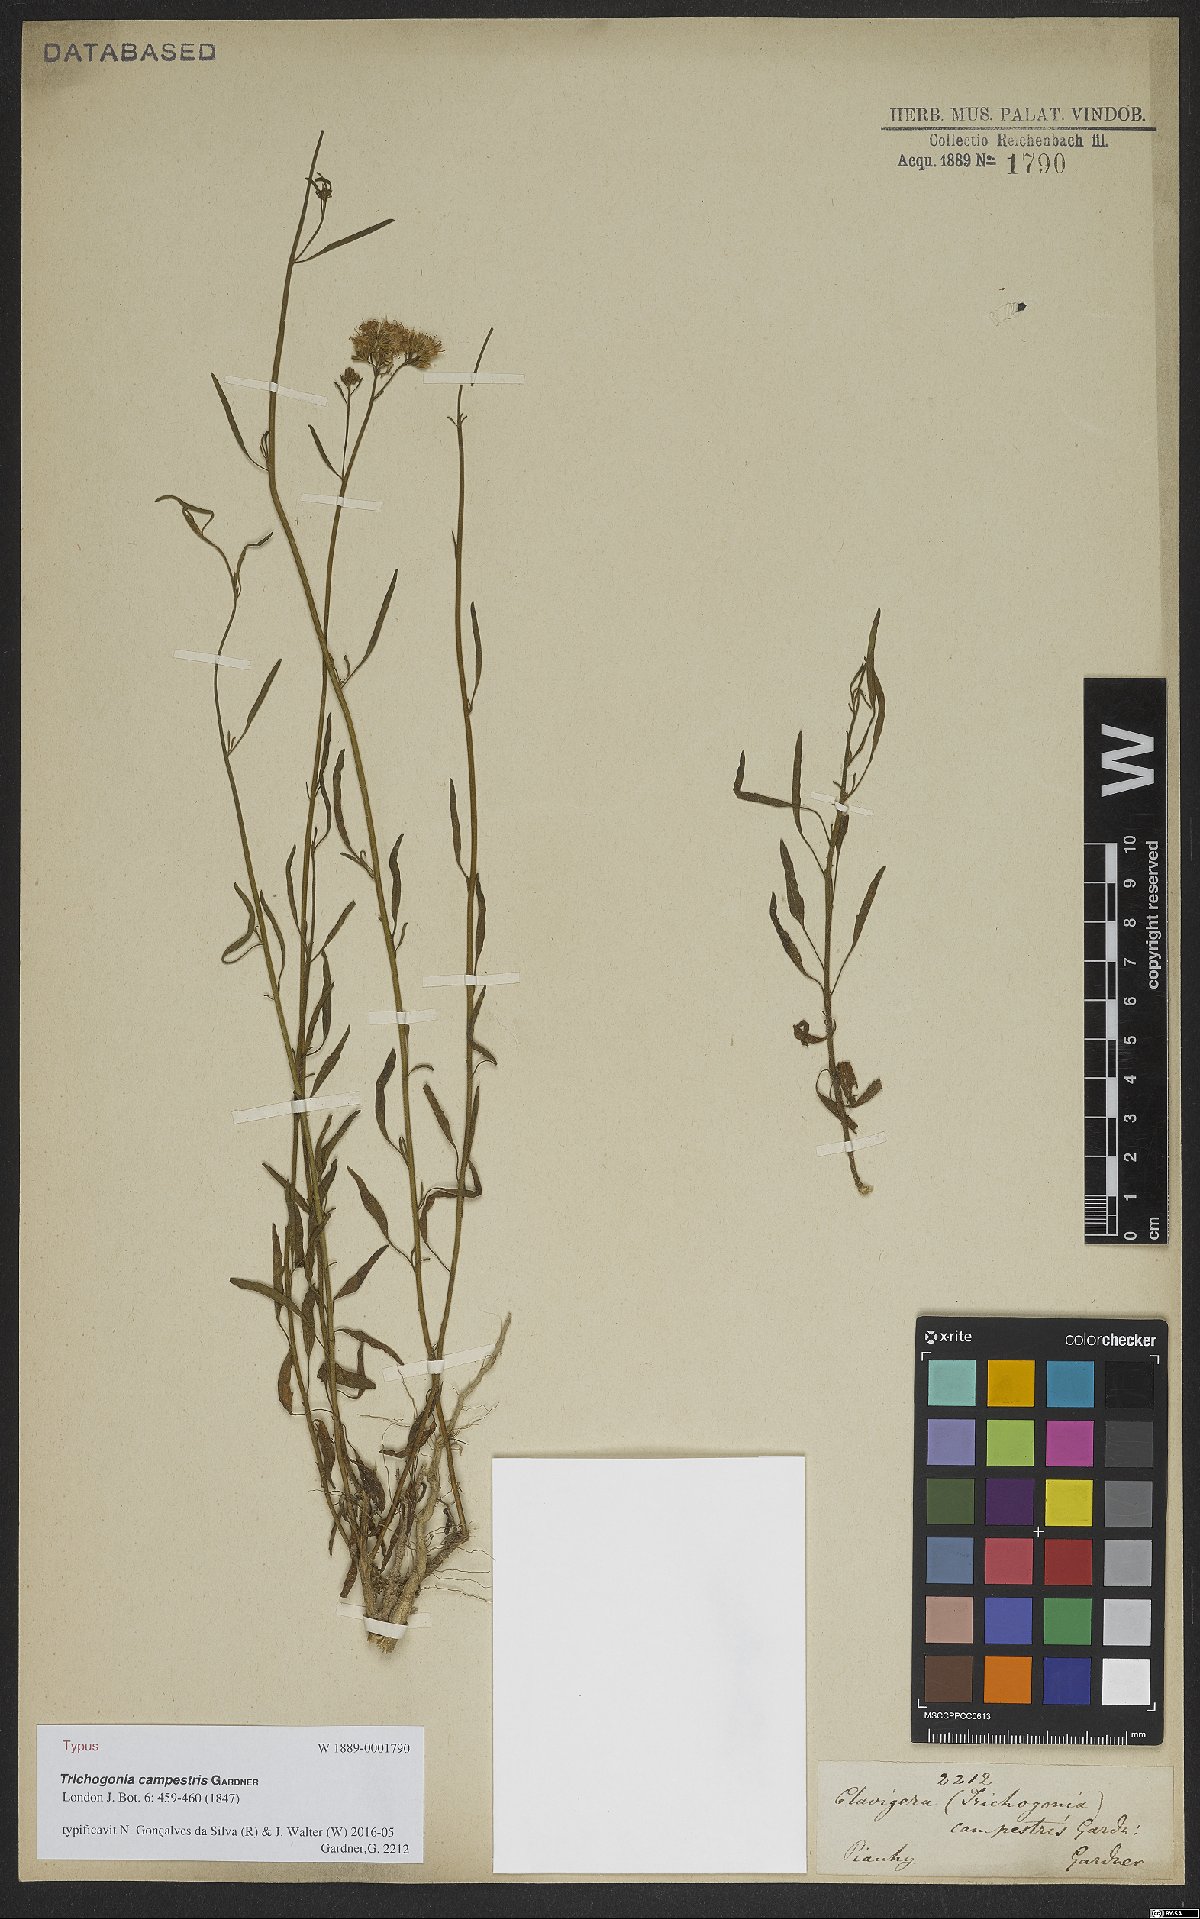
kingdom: Plantae
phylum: Tracheophyta
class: Magnoliopsida
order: Asterales
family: Asteraceae
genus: Trichogonia
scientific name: Trichogonia campestris
